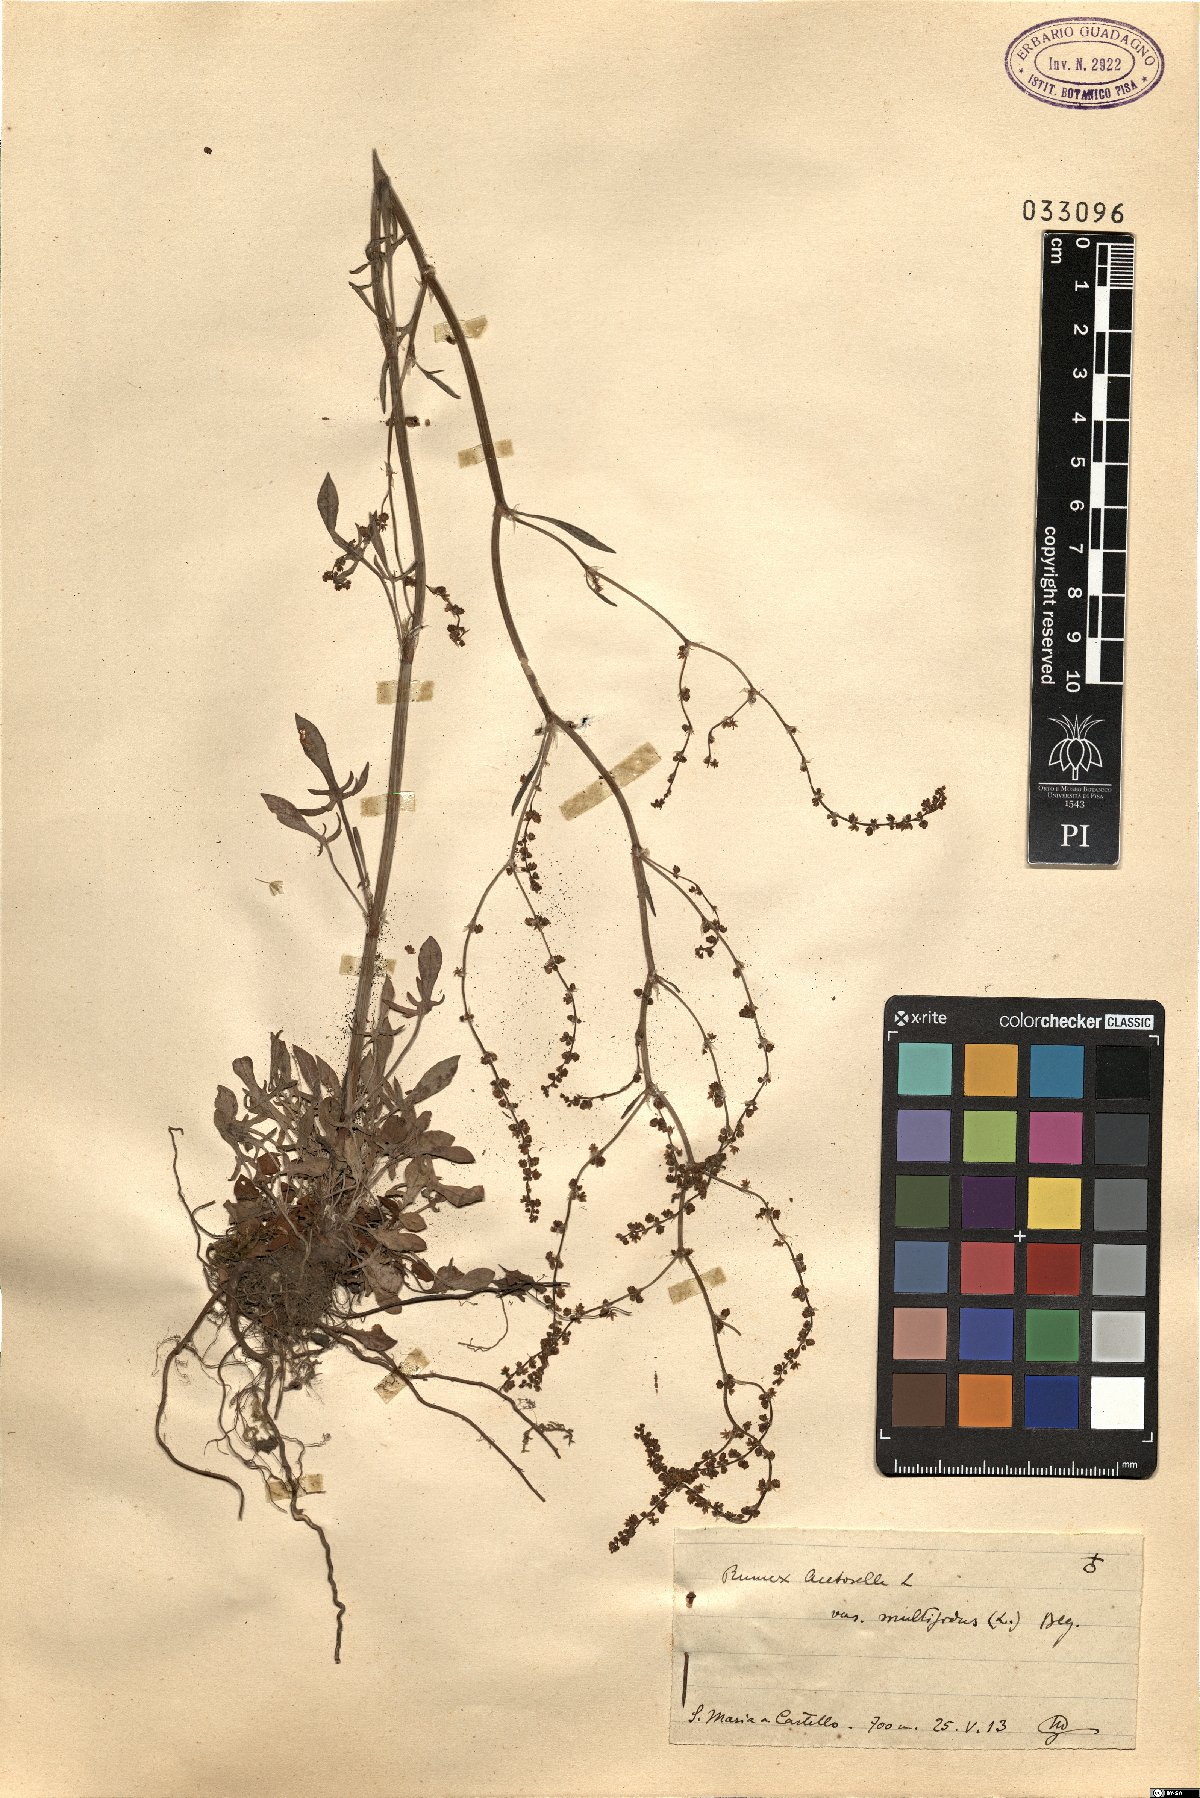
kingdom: Plantae
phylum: Tracheophyta
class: Magnoliopsida
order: Caryophyllales
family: Polygonaceae
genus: Rumex
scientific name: Rumex acetosella
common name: Common sheep sorrel
